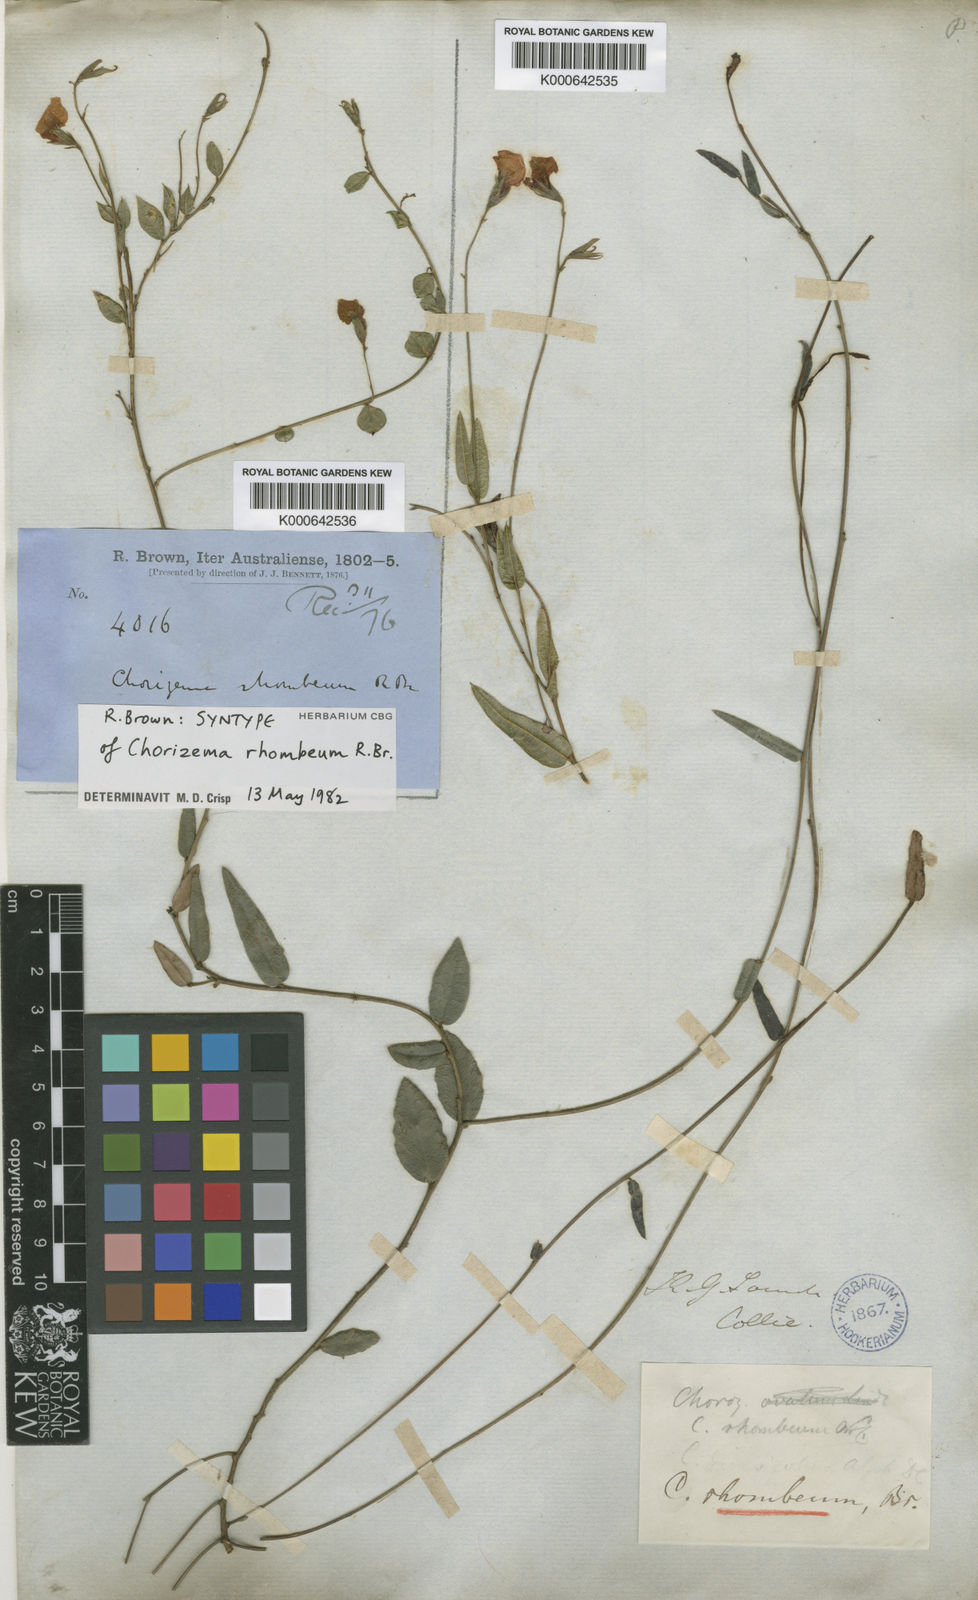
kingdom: Plantae
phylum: Tracheophyta
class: Magnoliopsida
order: Fabales
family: Fabaceae
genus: Chorizema
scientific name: Chorizema rhombeum
